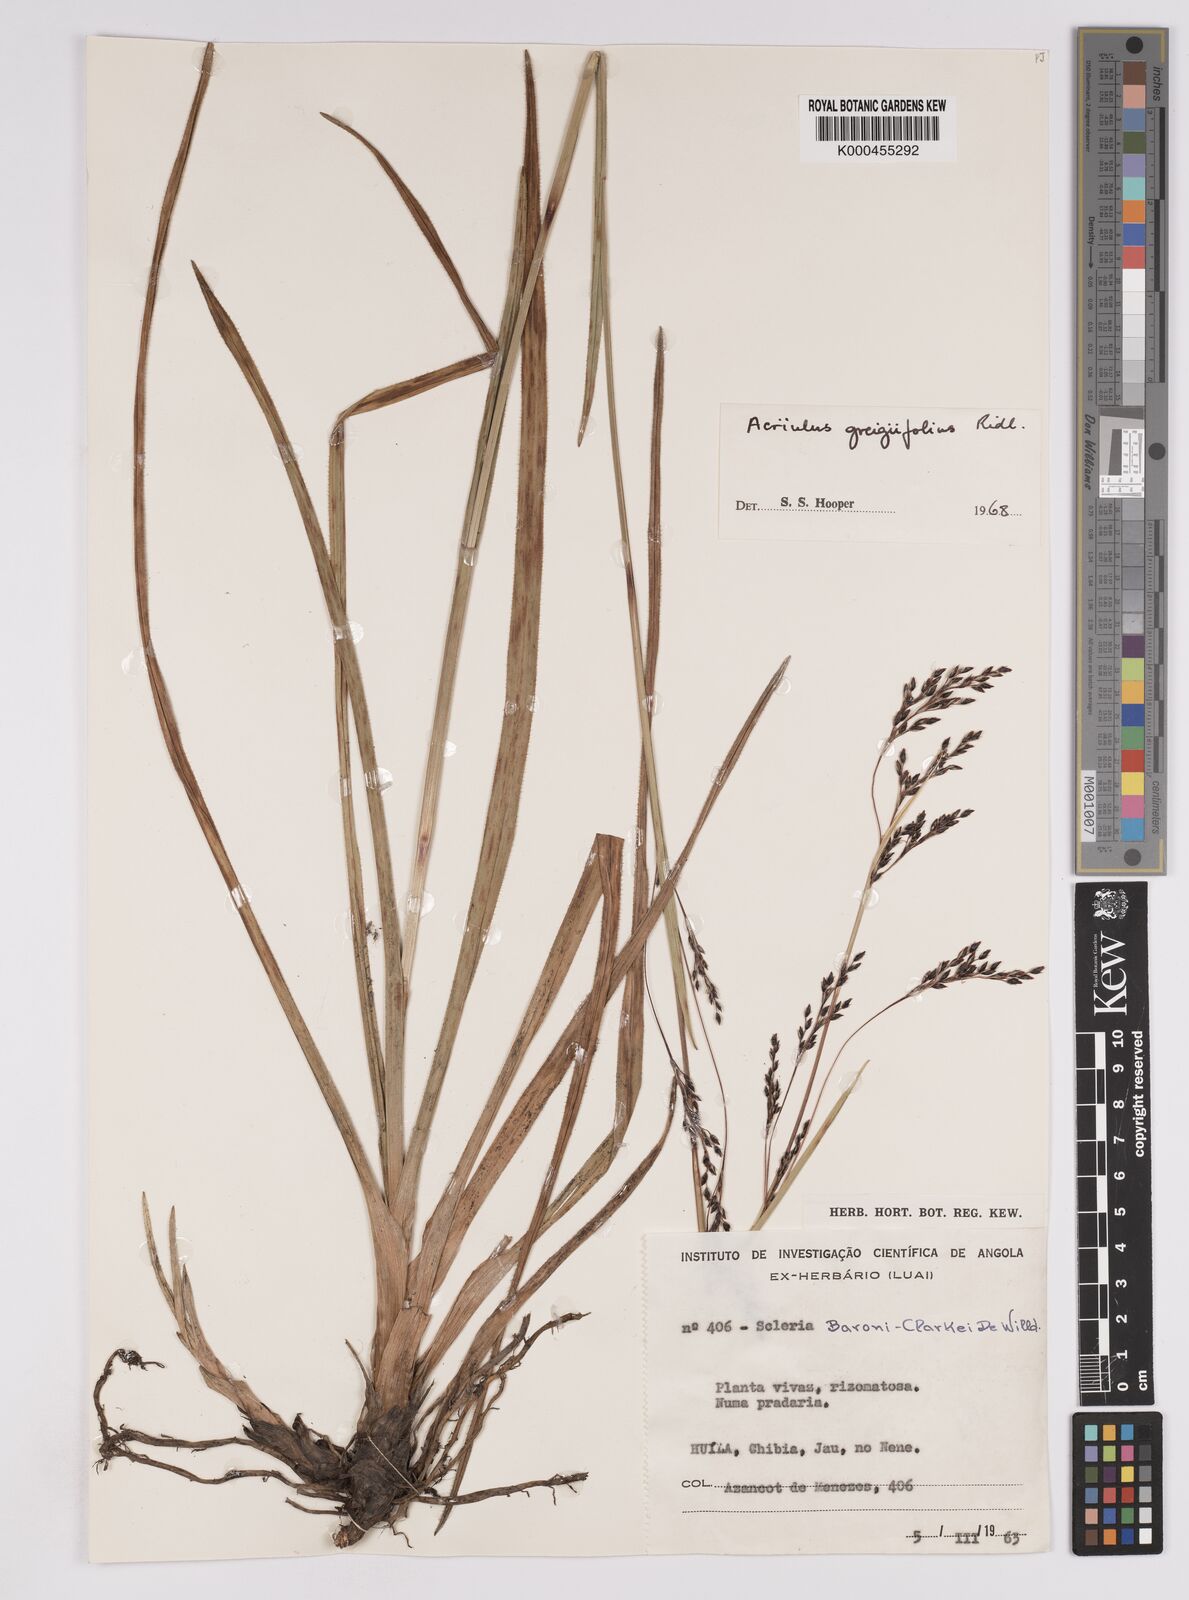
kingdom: Plantae
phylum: Tracheophyta
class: Liliopsida
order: Poales
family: Cyperaceae
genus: Scleria
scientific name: Scleria greigiifolia
